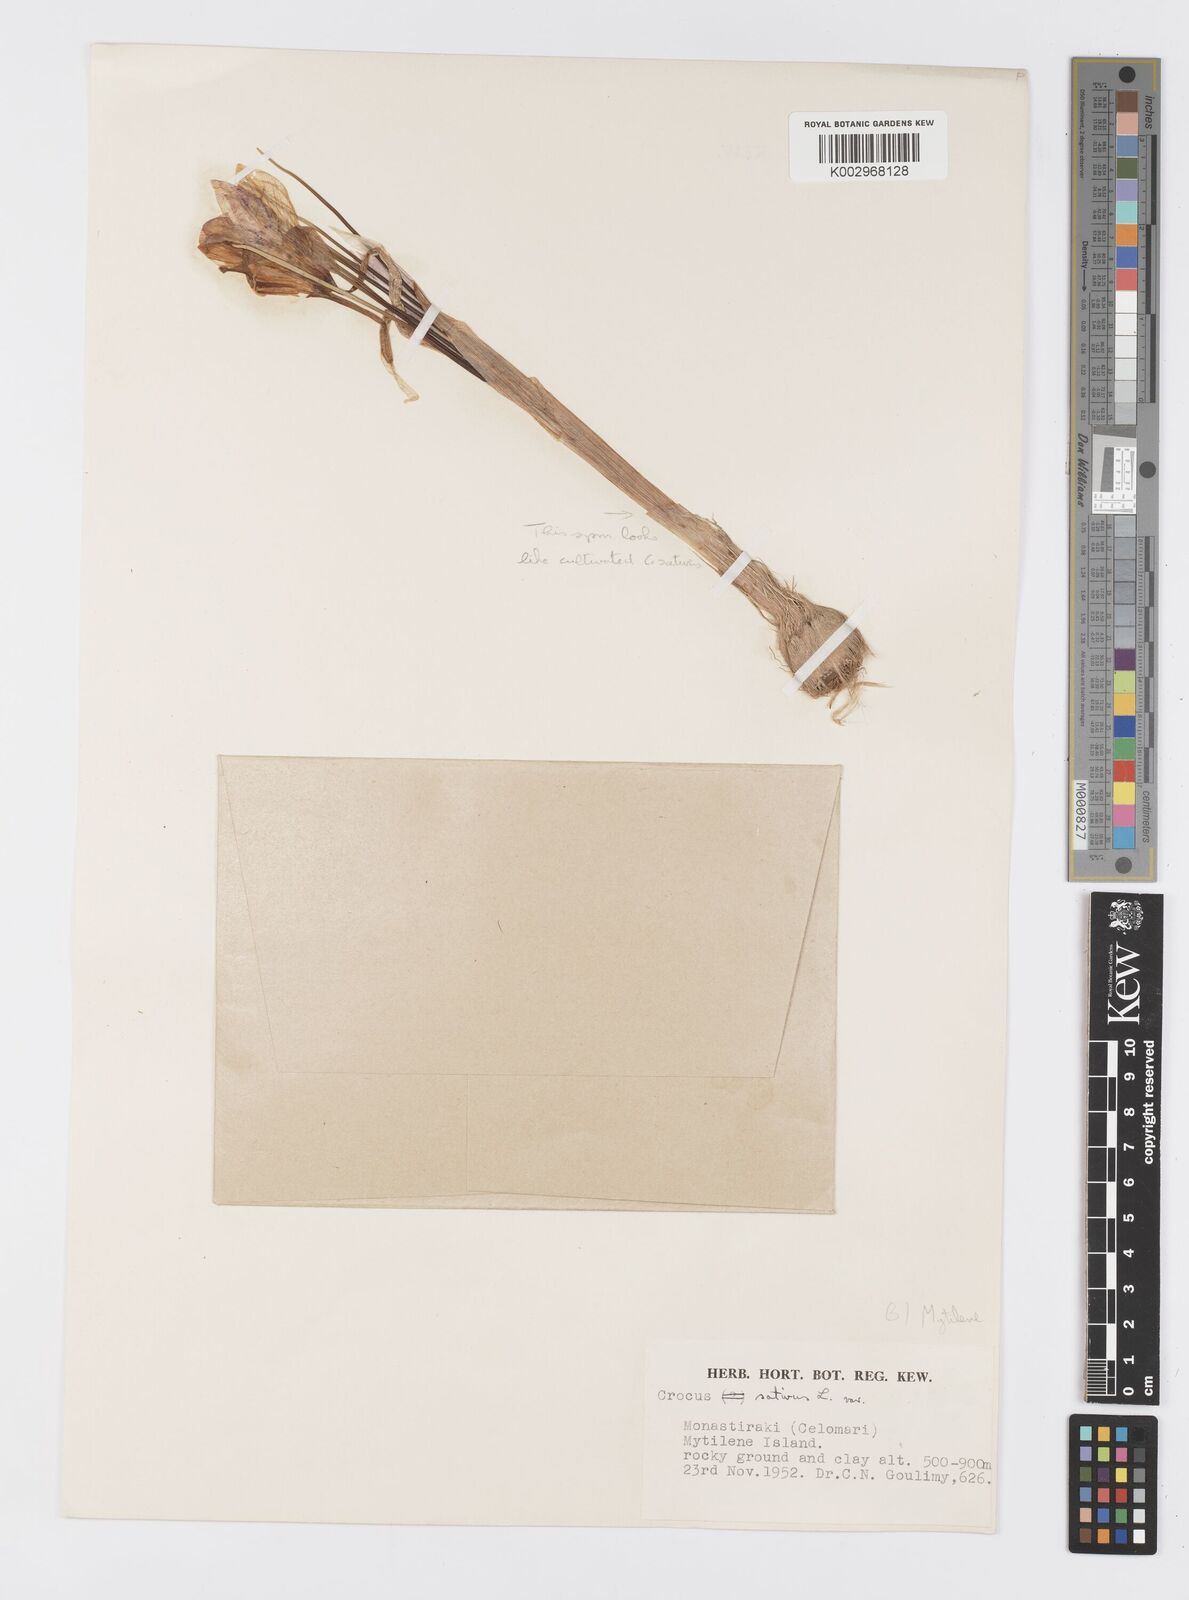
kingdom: Plantae
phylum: Tracheophyta
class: Liliopsida
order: Asparagales
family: Iridaceae
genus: Crocus
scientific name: Crocus
